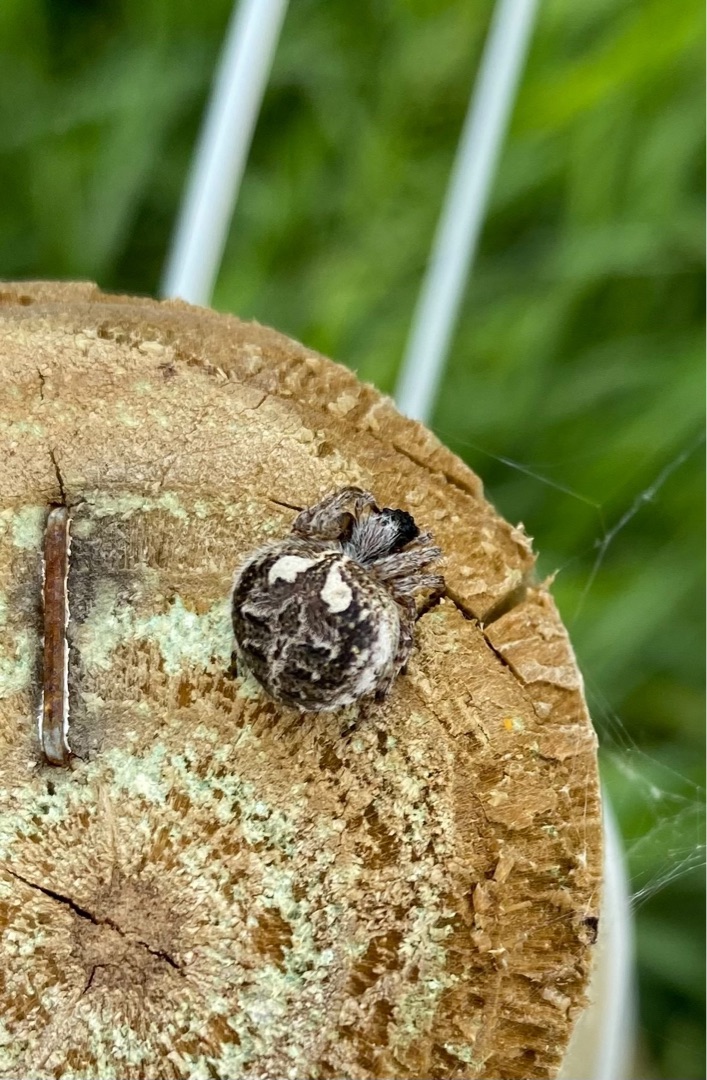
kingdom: Animalia
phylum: Arthropoda
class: Arachnida
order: Araneae
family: Araneidae
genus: Agalenatea
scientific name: Agalenatea redii
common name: Lodden hjulspinder
